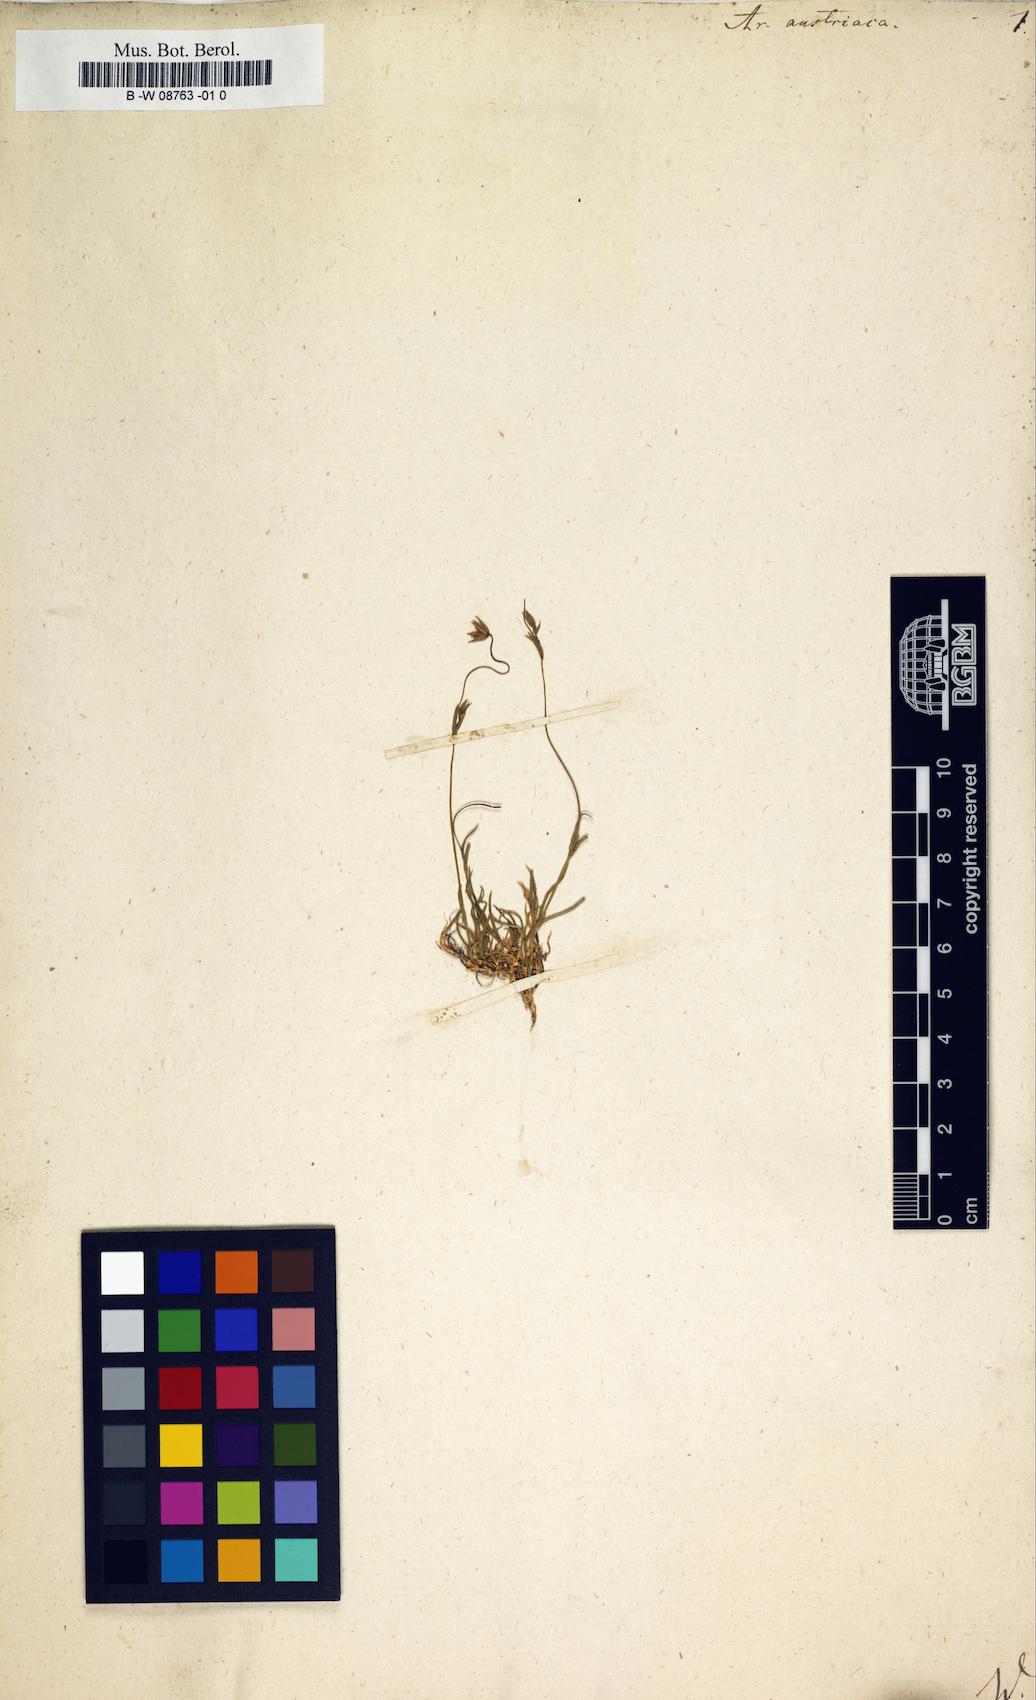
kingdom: Plantae
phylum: Tracheophyta
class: Magnoliopsida
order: Caryophyllales
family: Caryophyllaceae
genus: Sabulina
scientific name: Sabulina austriaca
